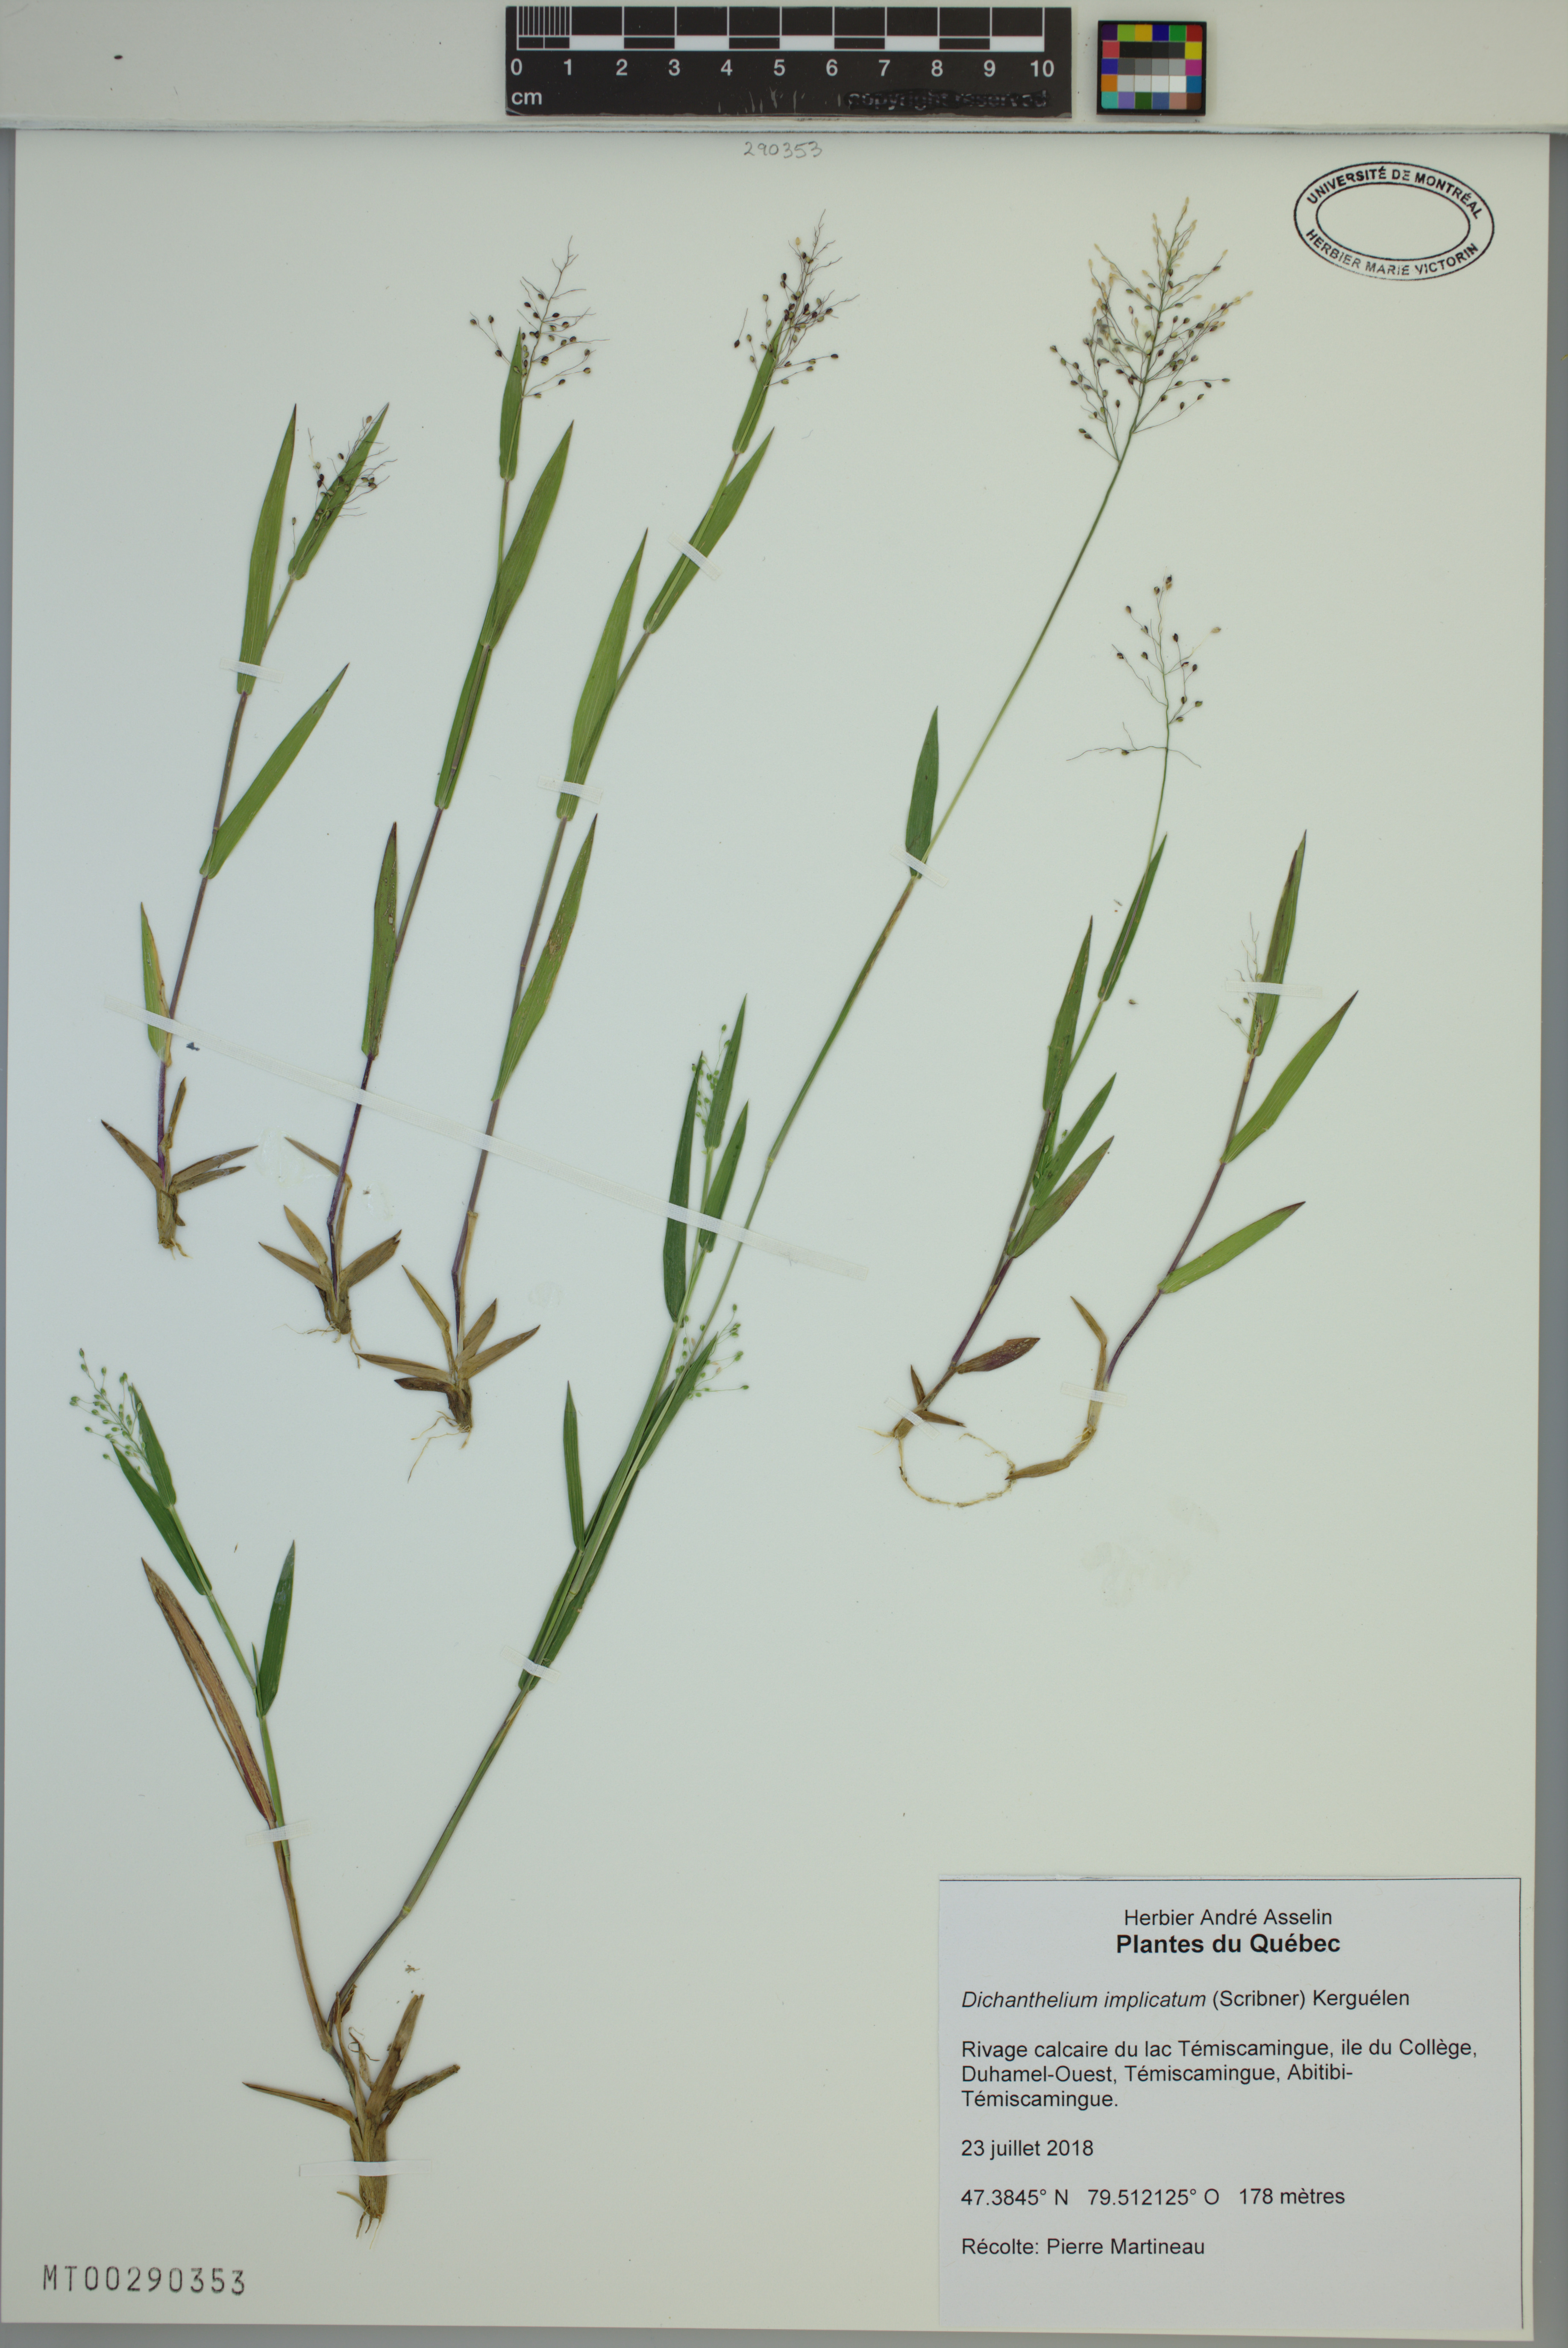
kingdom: Plantae
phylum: Tracheophyta
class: Liliopsida
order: Poales
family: Poaceae
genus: Dichanthelium
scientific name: Dichanthelium implicatum
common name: Slender-stemmed panicgrass
